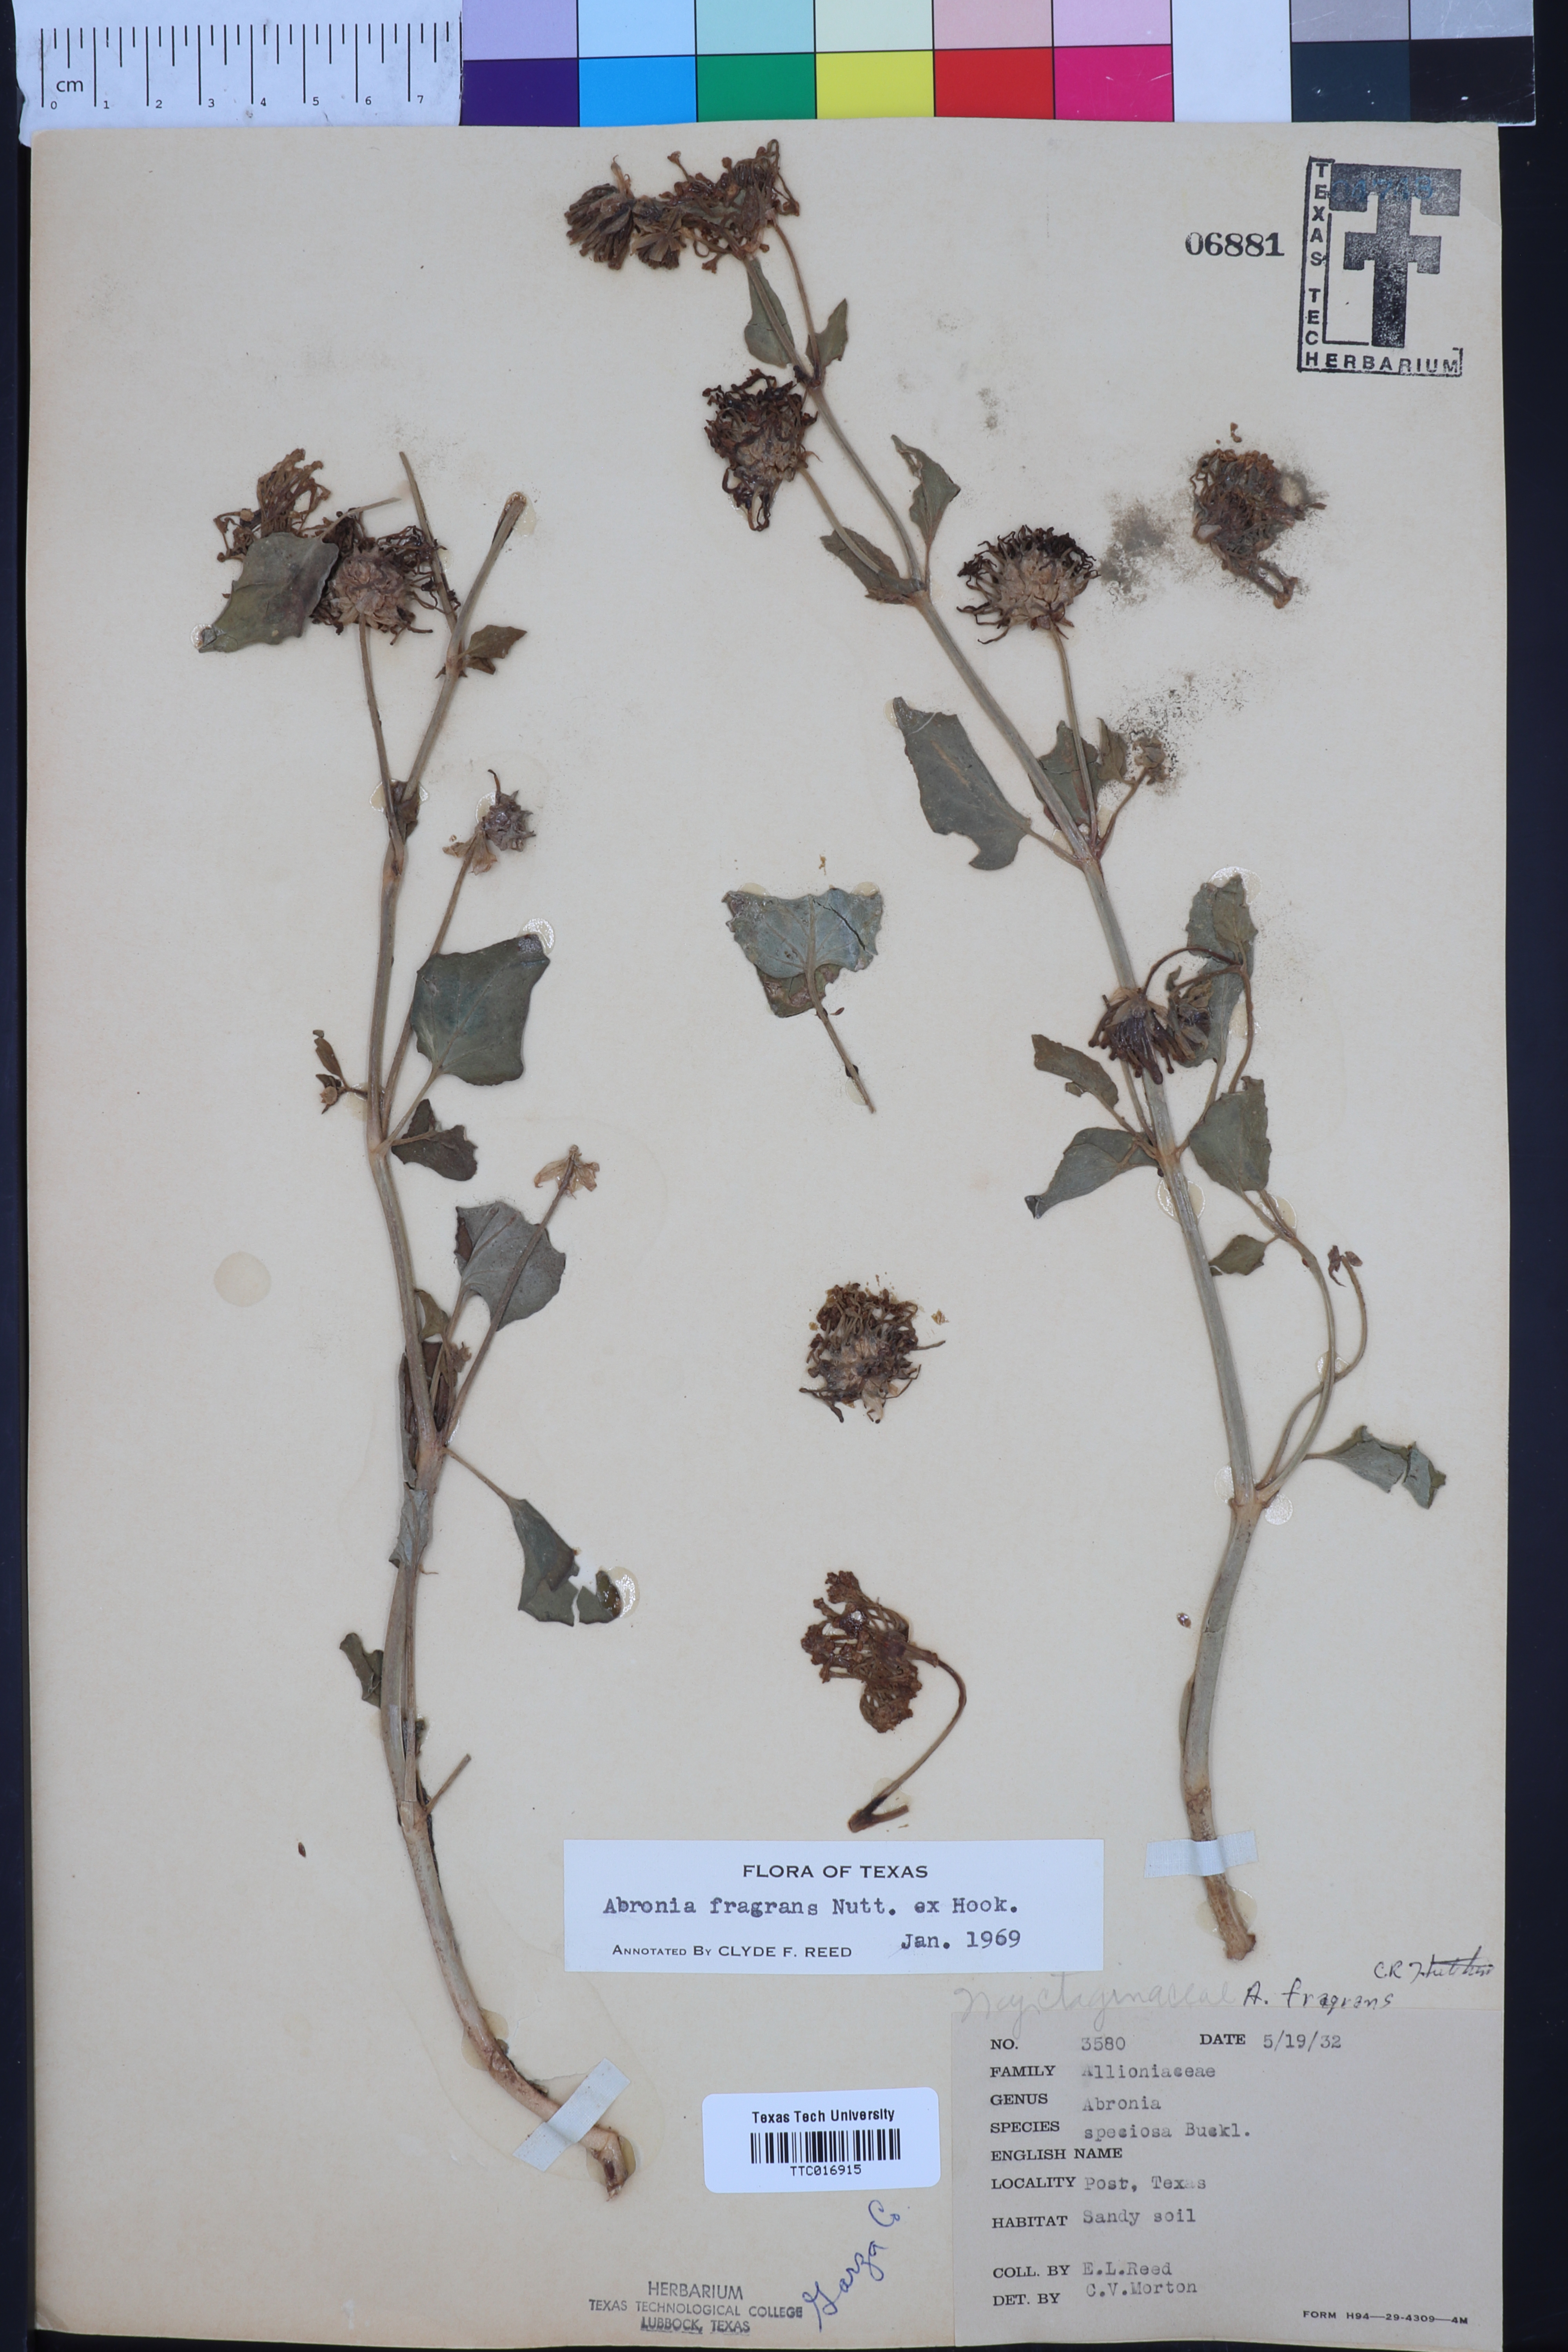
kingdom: Plantae
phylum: Tracheophyta
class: Magnoliopsida
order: Caryophyllales
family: Nyctaginaceae
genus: Abronia
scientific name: Abronia fragrans
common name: Fragrant sand-verbena
